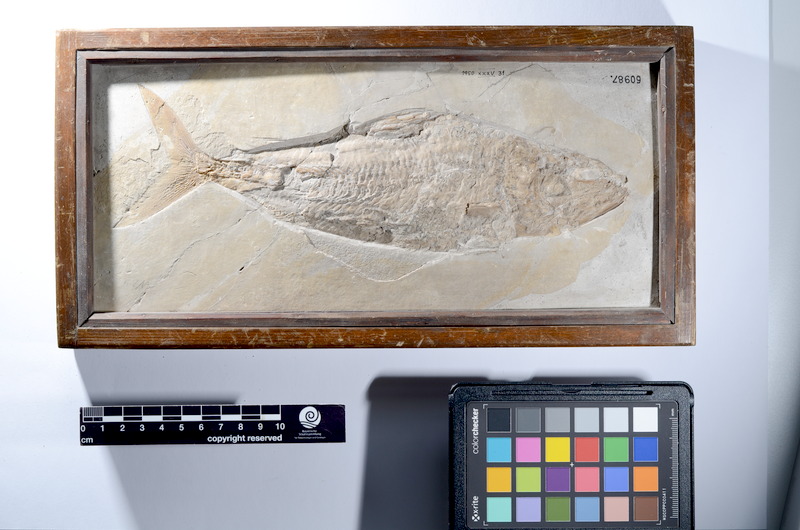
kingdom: Animalia
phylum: Chordata
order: Amiiformes
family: Caturidae
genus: Caturus
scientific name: Caturus
